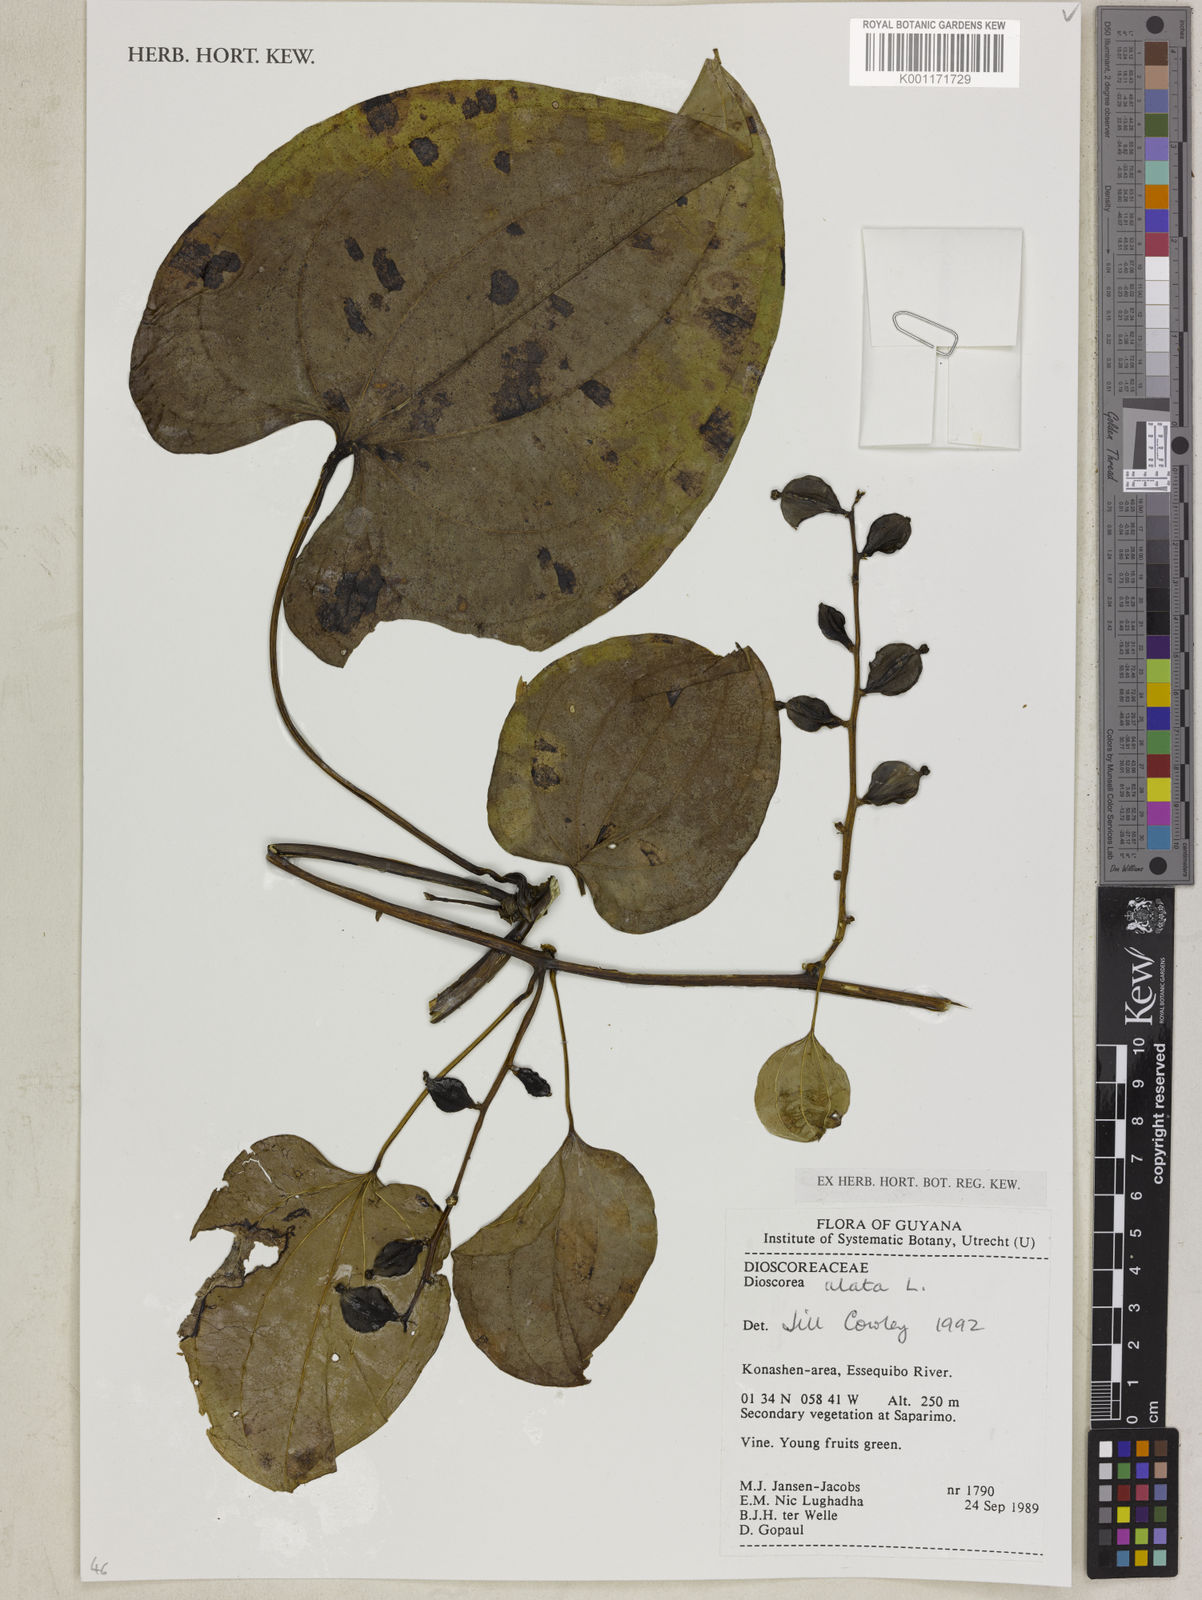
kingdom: Plantae
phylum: Tracheophyta
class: Liliopsida
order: Dioscoreales
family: Dioscoreaceae
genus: Dioscorea
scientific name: Dioscorea alata
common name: Water yam
